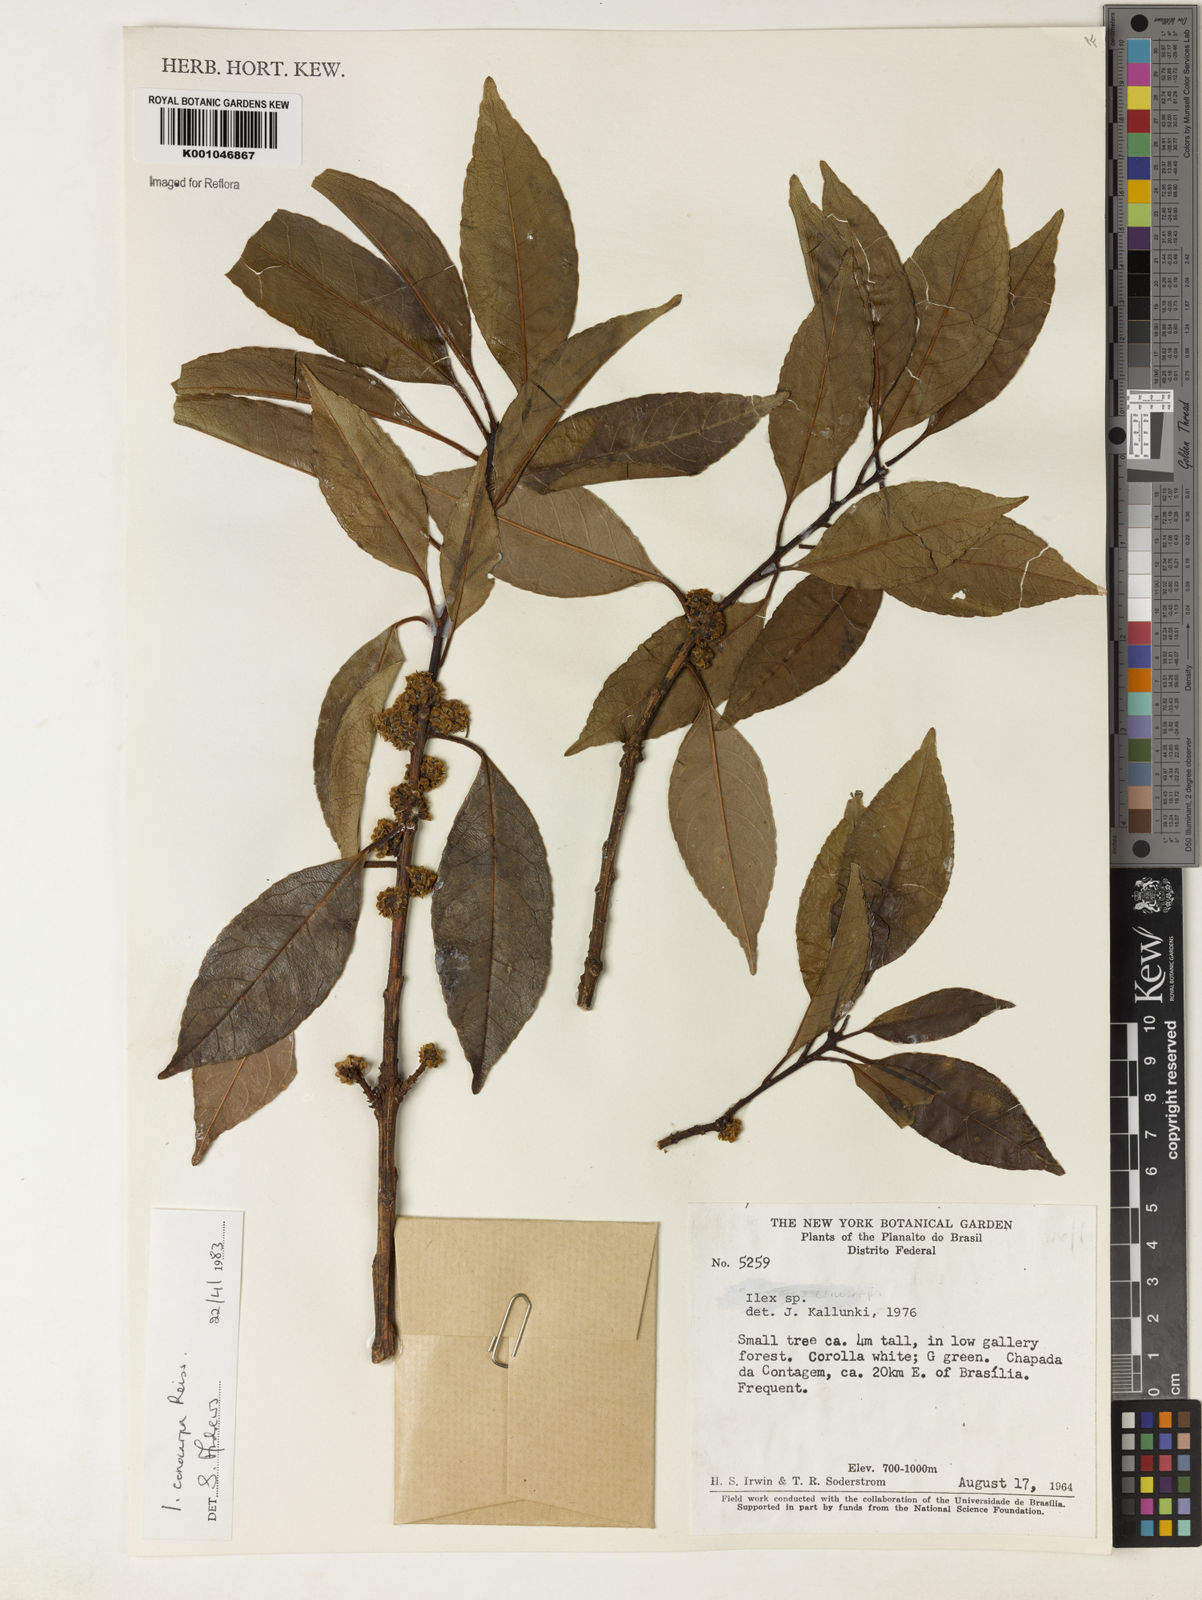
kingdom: Plantae
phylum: Tracheophyta
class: Magnoliopsida
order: Aquifoliales
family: Aquifoliaceae
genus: Ilex
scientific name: Ilex conocarpa
